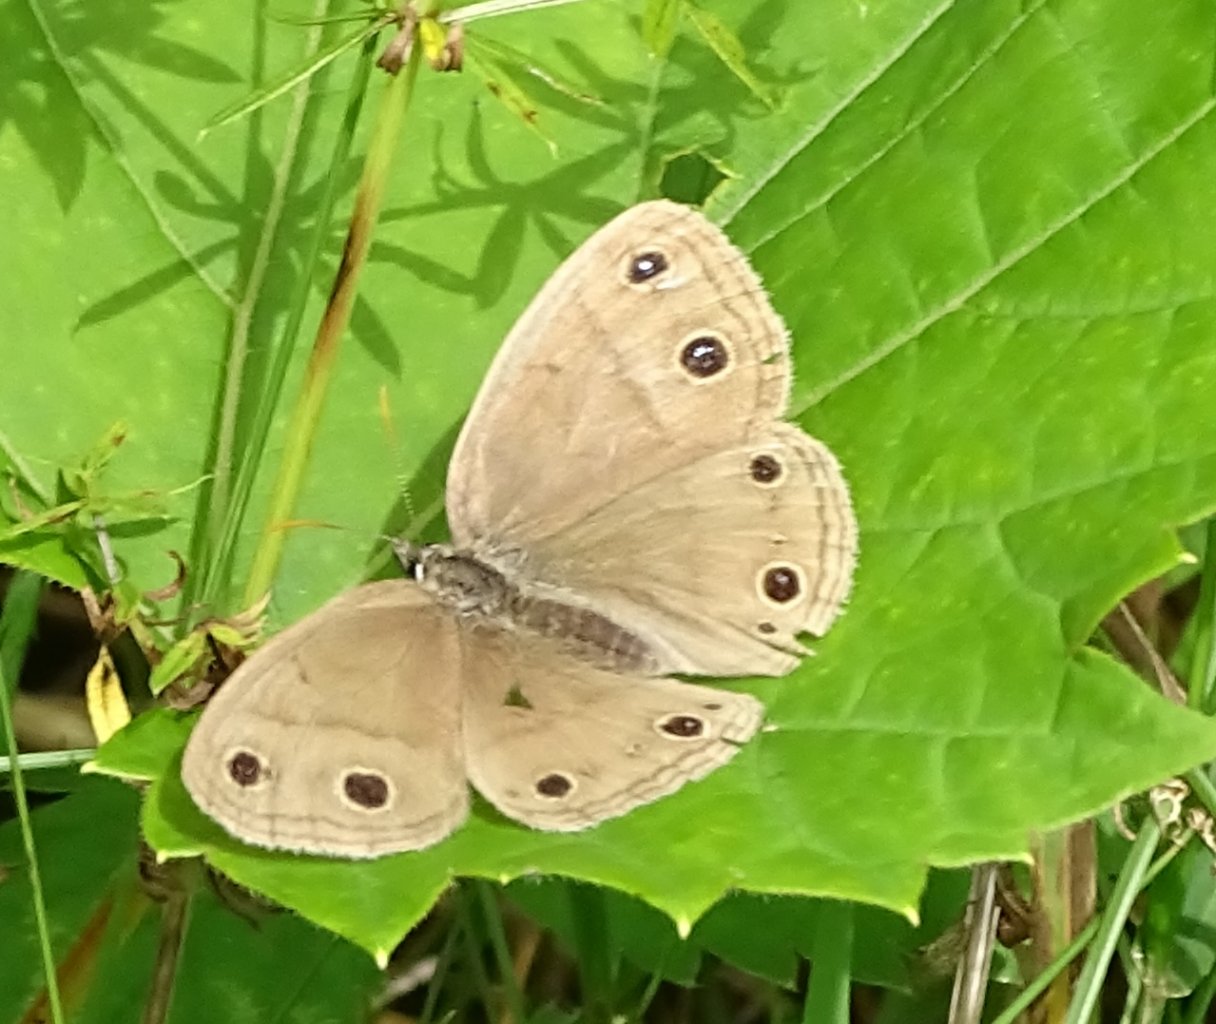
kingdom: Animalia
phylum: Arthropoda
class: Insecta
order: Lepidoptera
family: Nymphalidae
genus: Euptychia
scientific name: Euptychia cymela
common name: Little Wood Satyr
